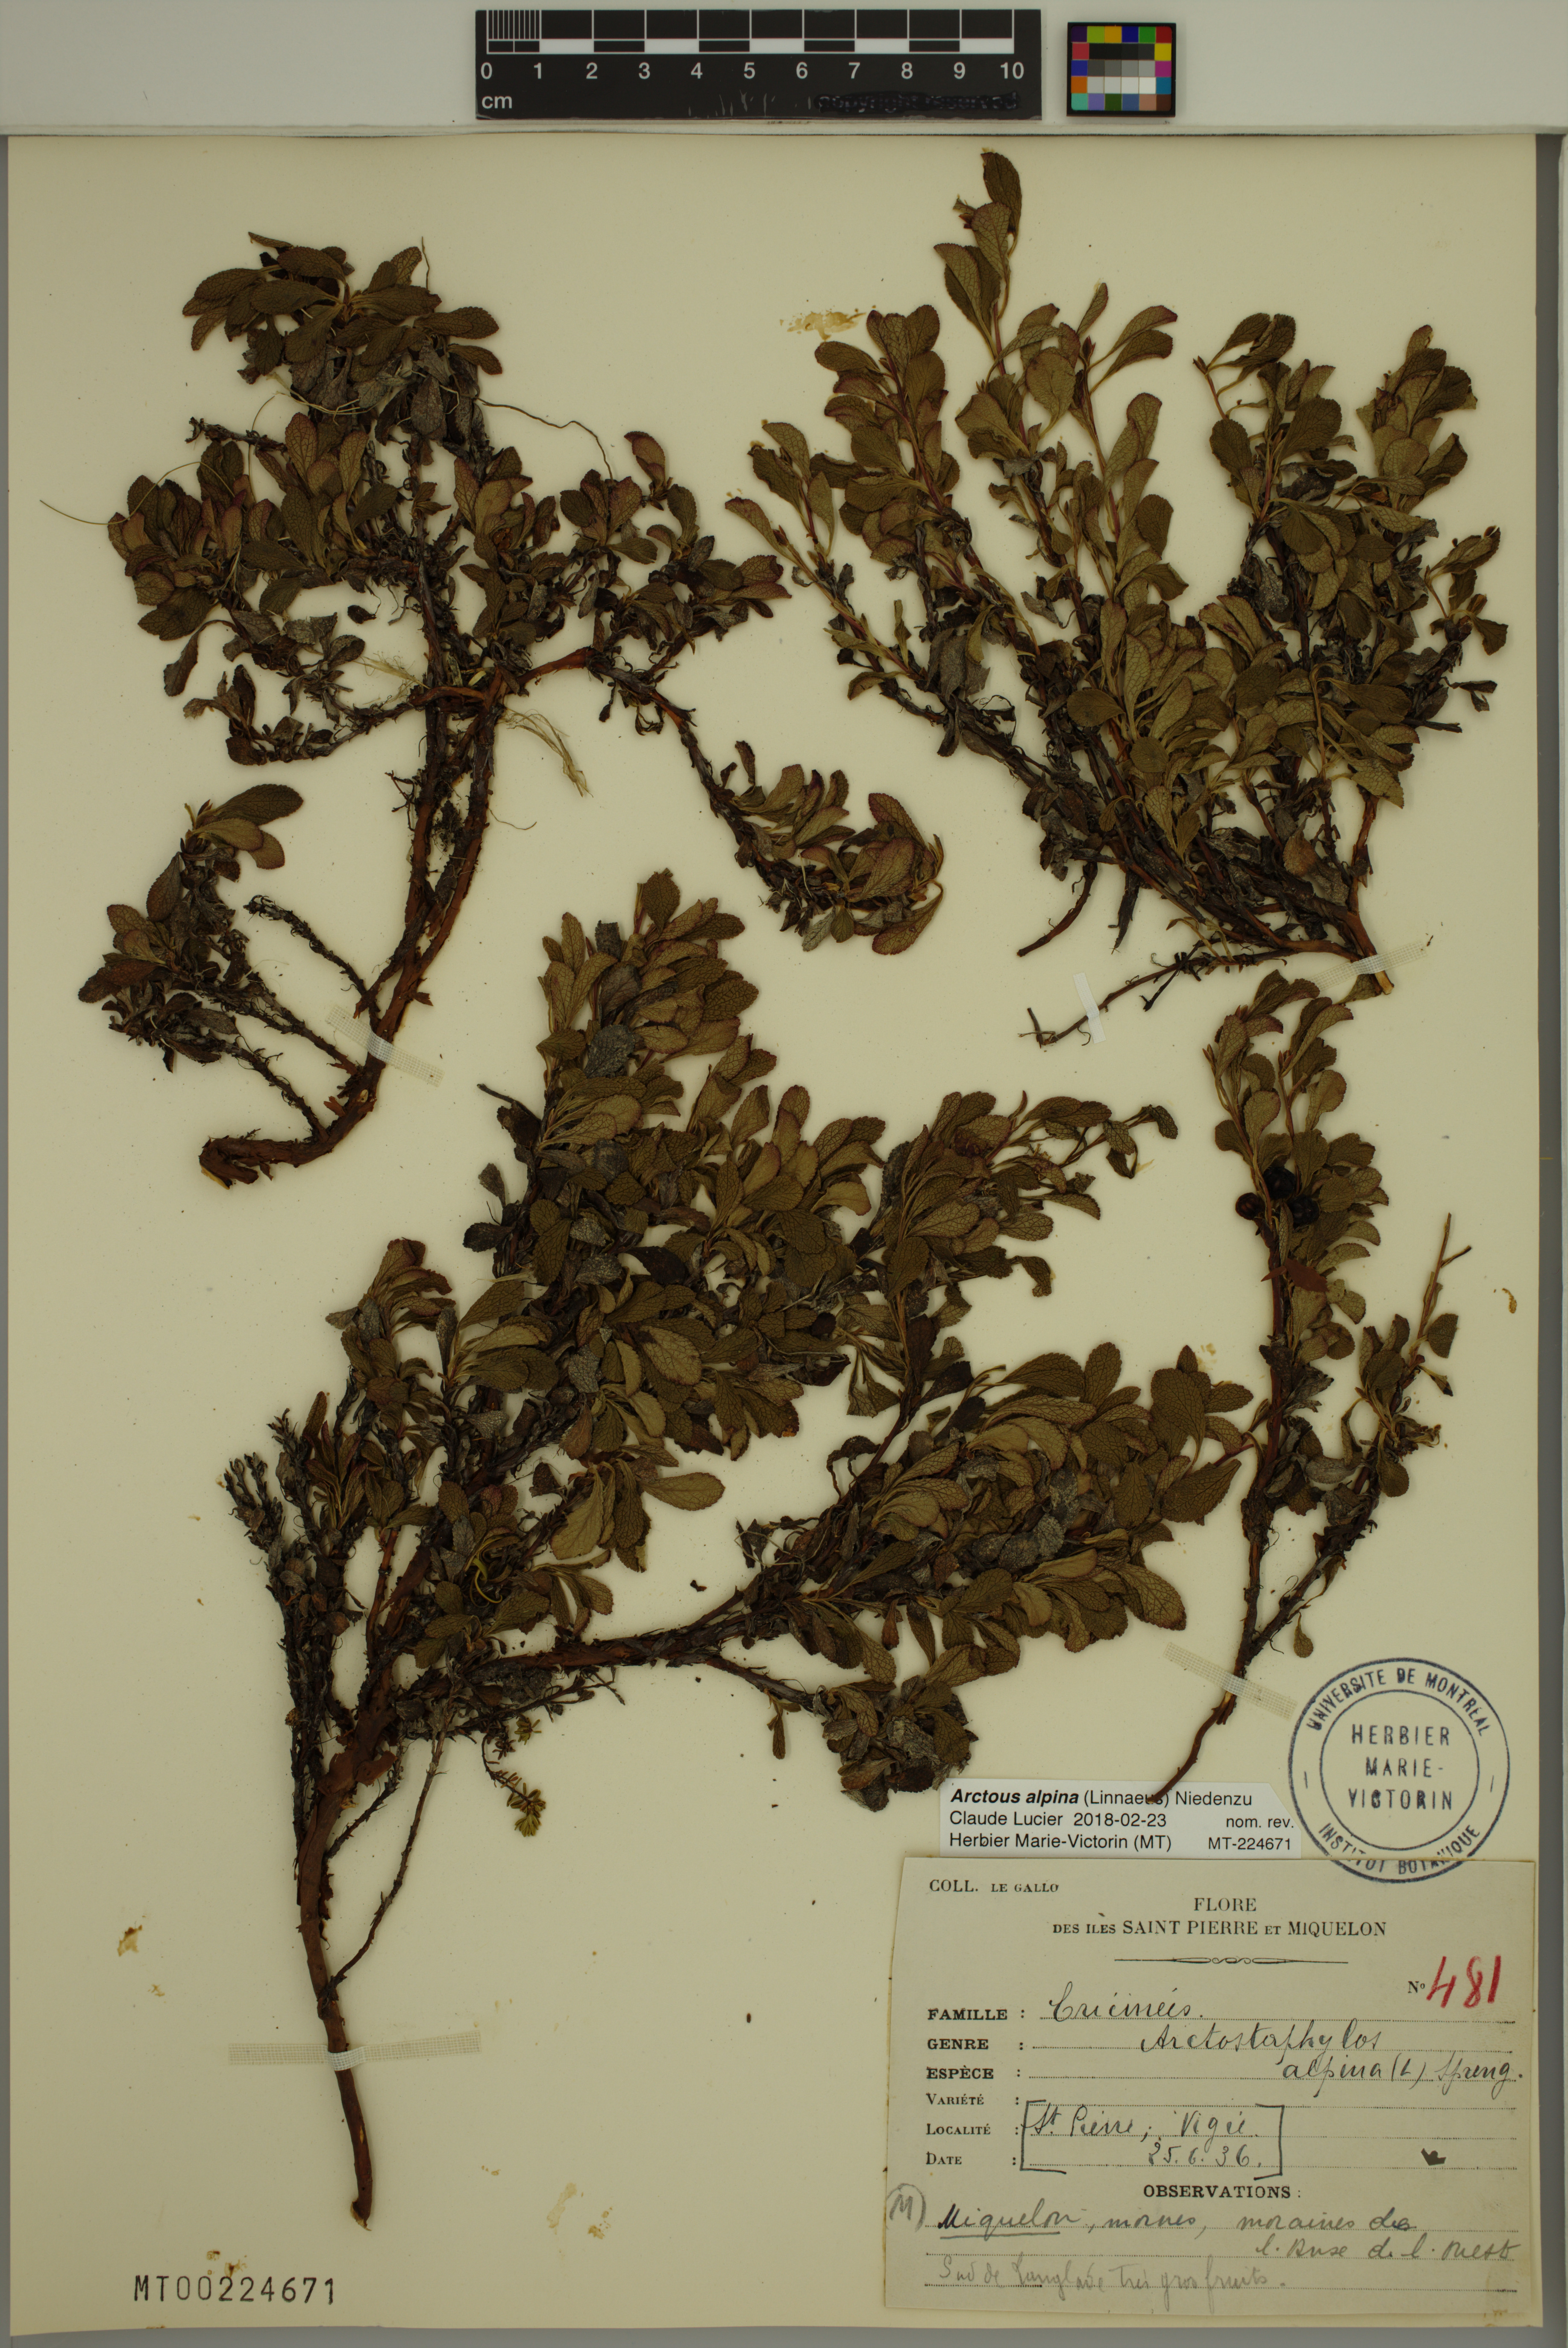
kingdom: Plantae
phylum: Tracheophyta
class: Magnoliopsida
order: Ericales
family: Ericaceae
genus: Arctostaphylos
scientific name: Arctostaphylos alpinus
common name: Alpine bearberry
